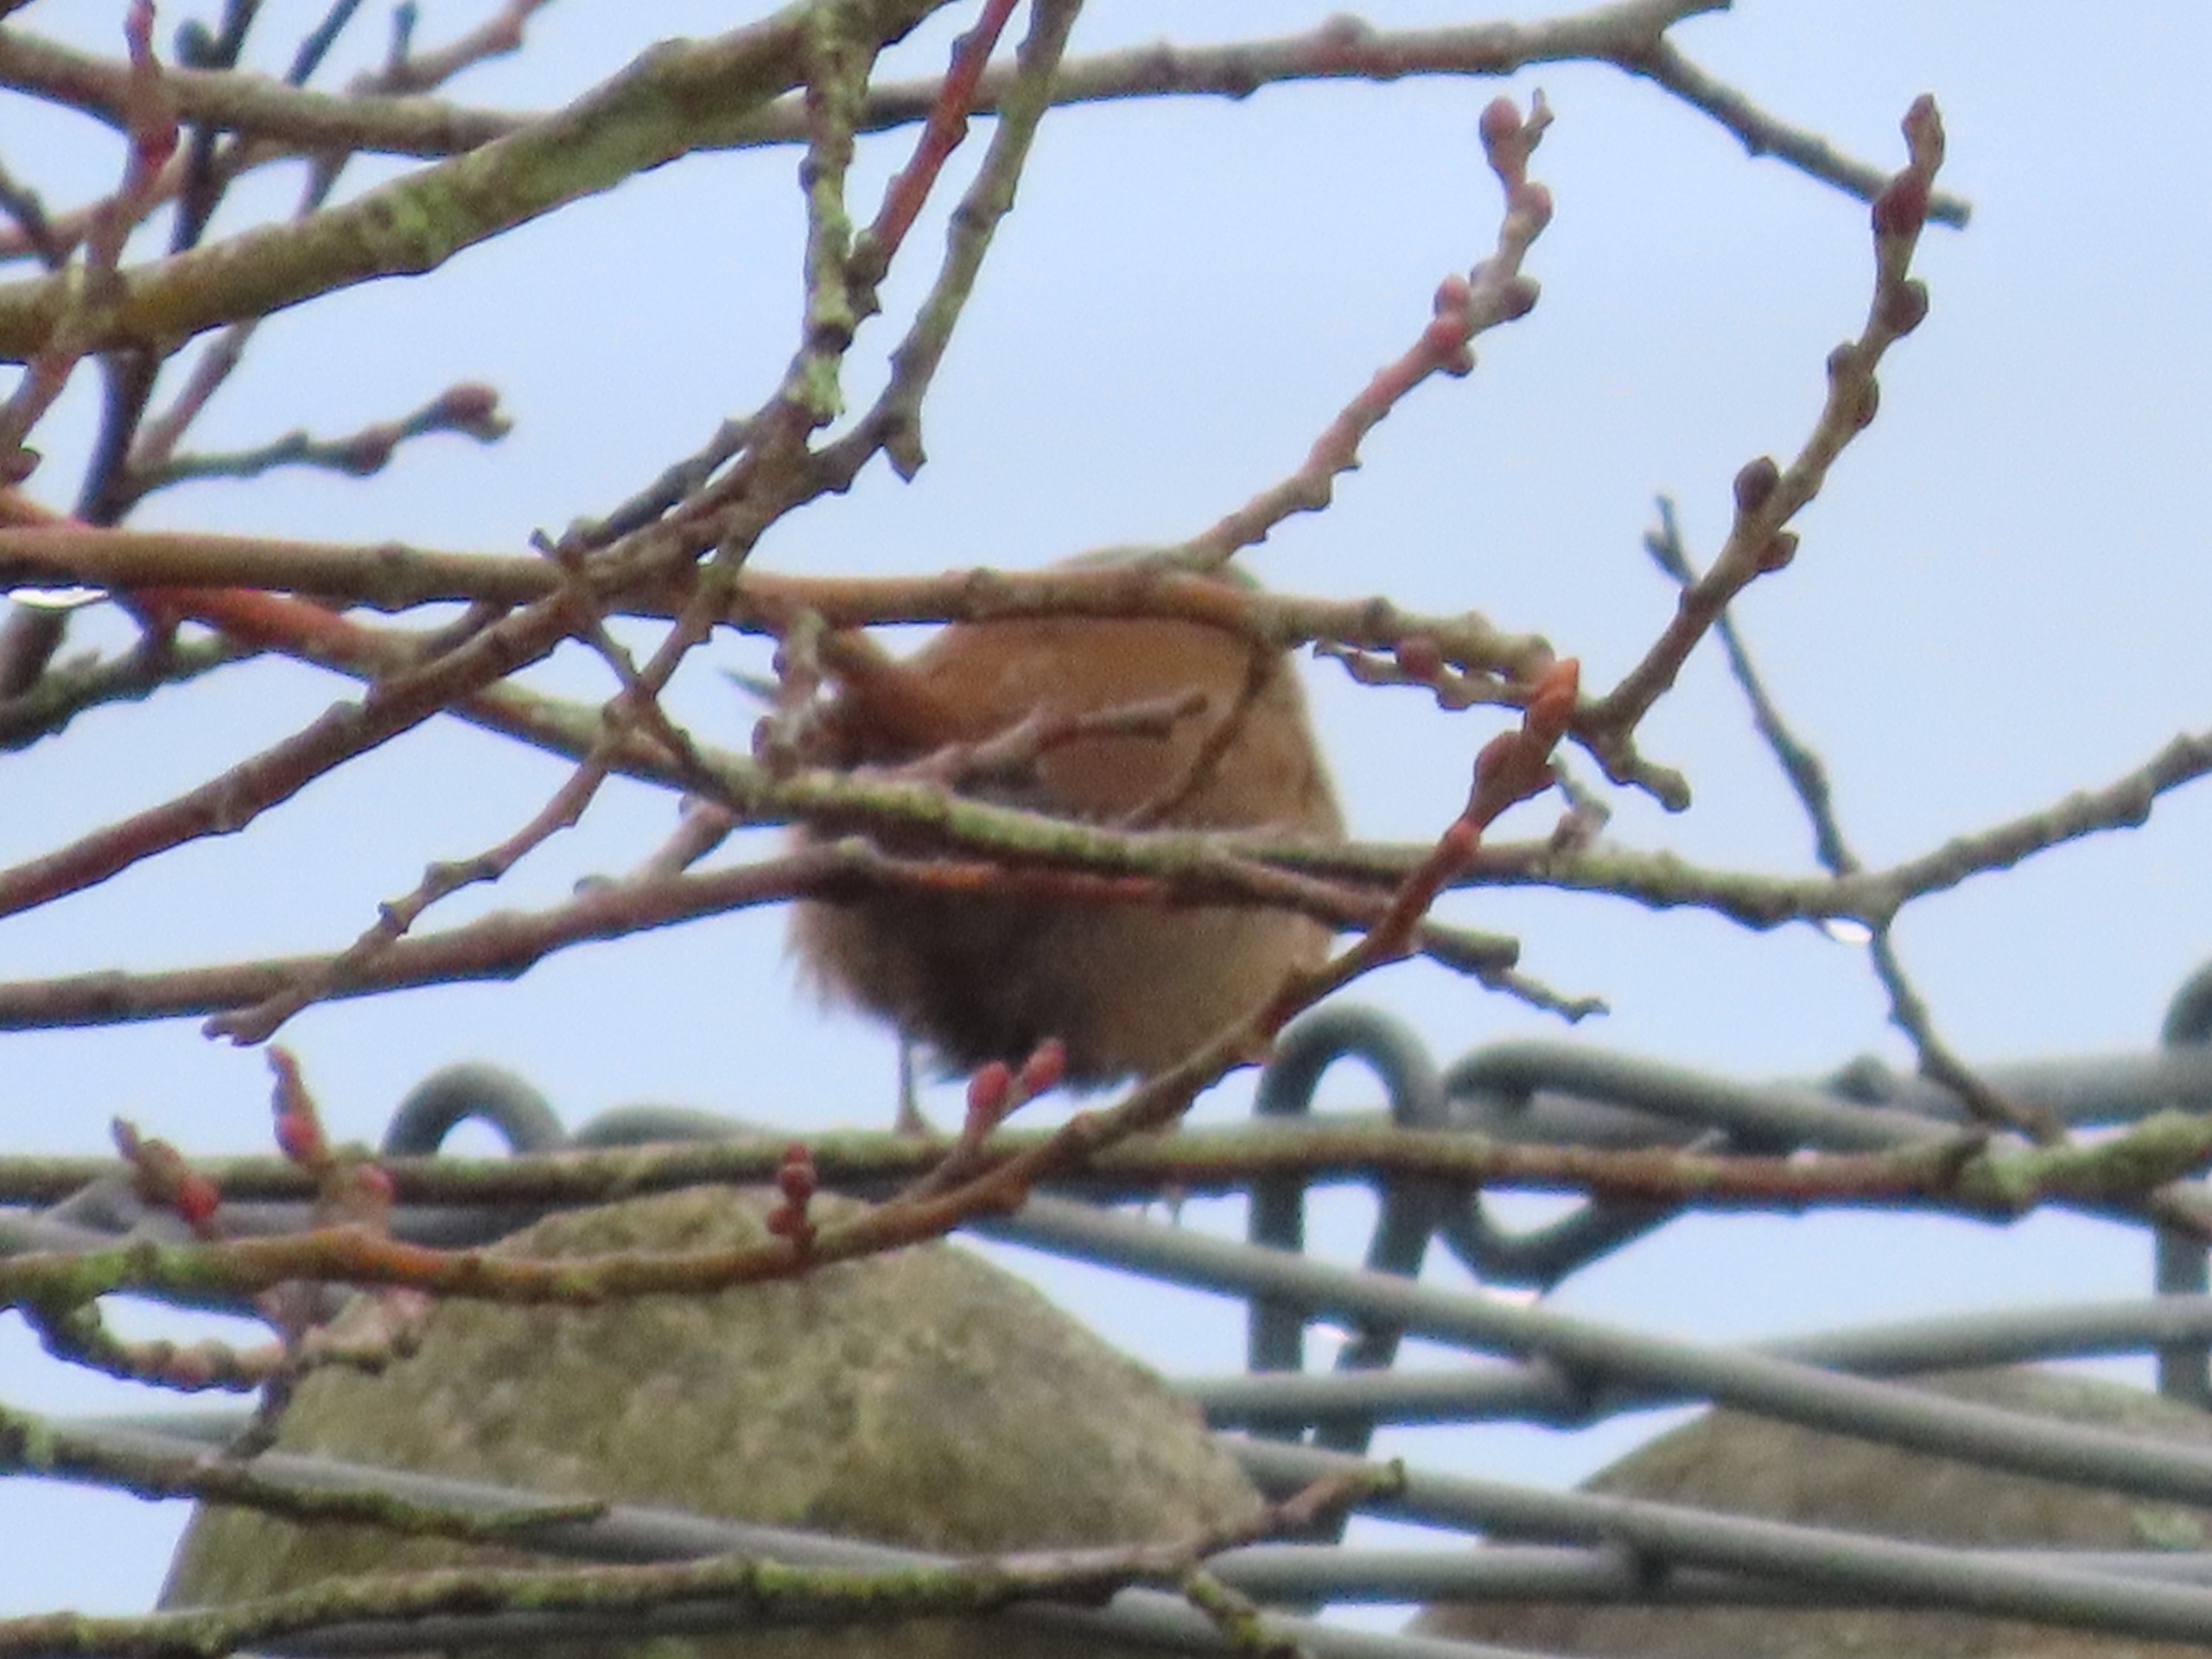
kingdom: Animalia
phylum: Chordata
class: Aves
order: Passeriformes
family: Troglodytidae
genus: Troglodytes
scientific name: Troglodytes troglodytes
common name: Gærdesmutte
